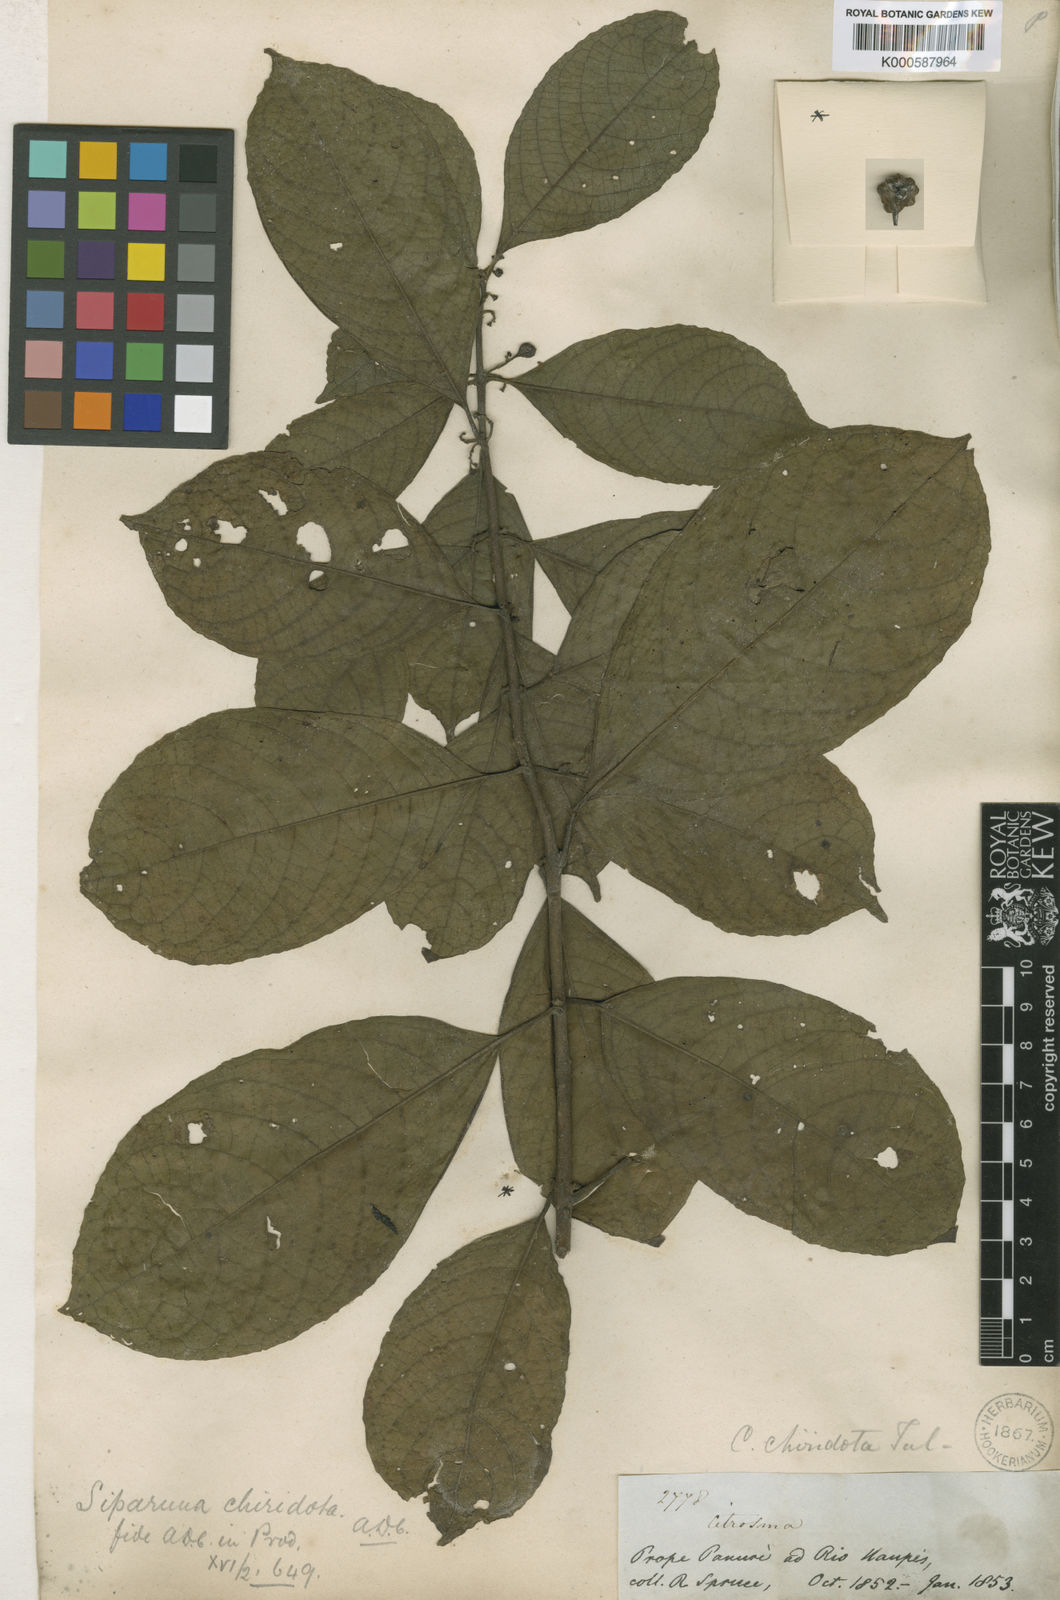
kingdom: Plantae
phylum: Tracheophyta
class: Magnoliopsida
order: Laurales
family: Siparunaceae
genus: Siparuna
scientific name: Siparuna thecaphora
